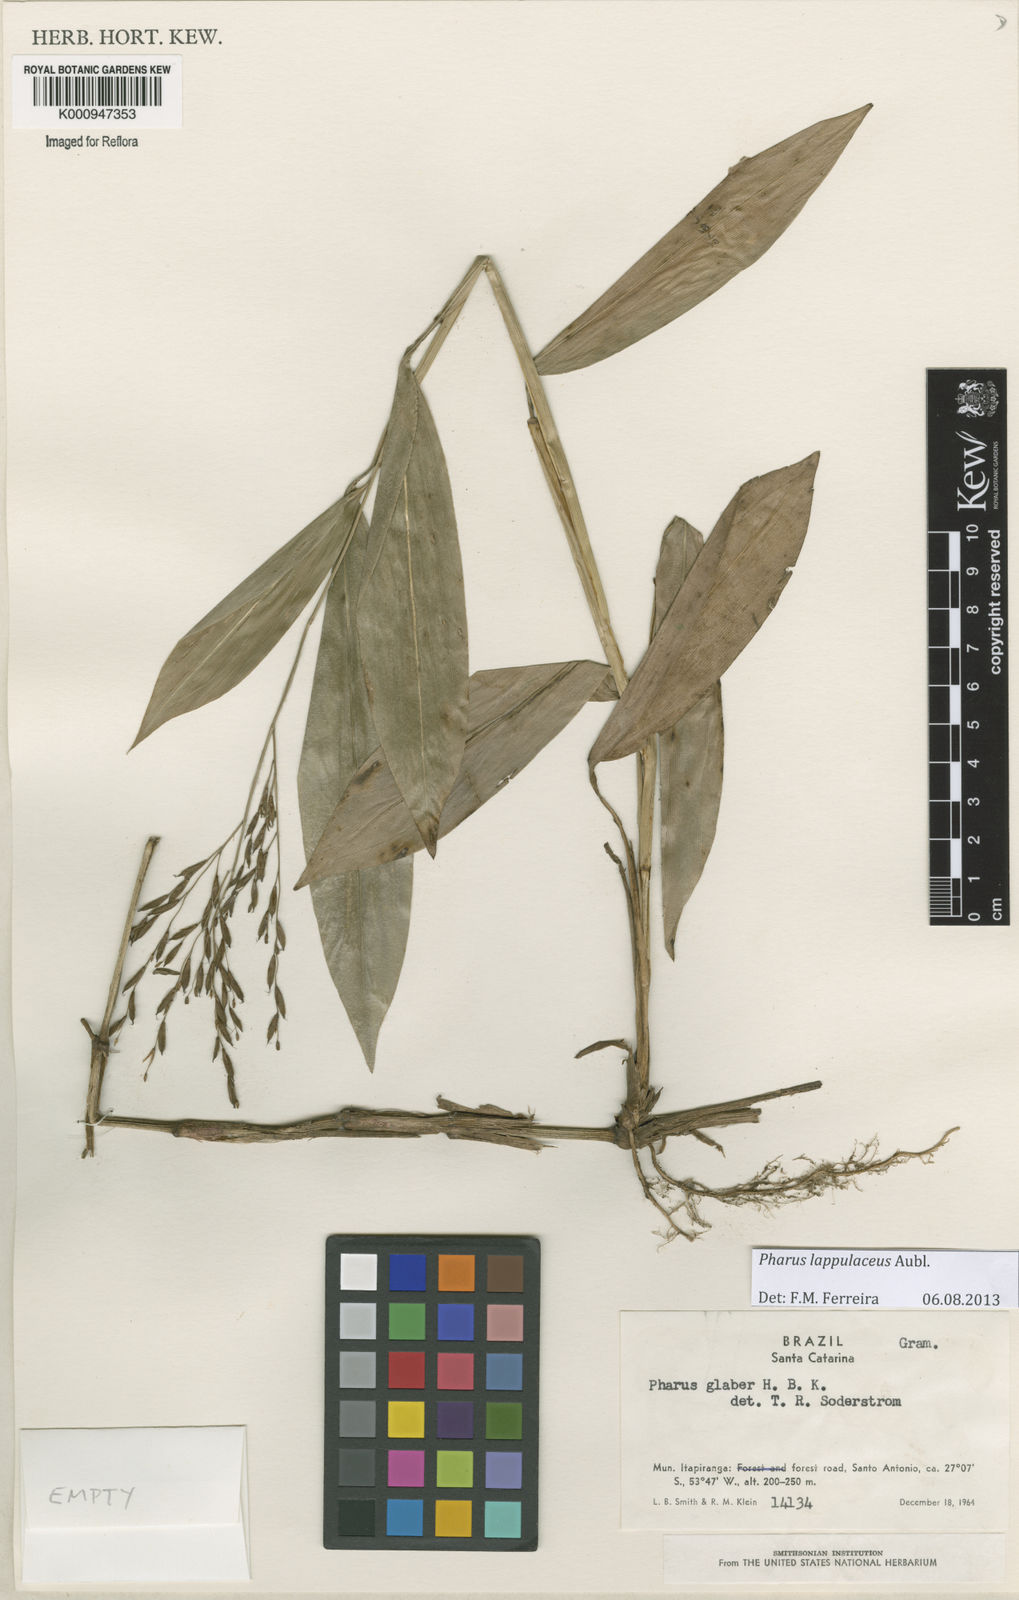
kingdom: Plantae
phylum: Tracheophyta
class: Liliopsida
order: Poales
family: Poaceae
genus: Pharus
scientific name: Pharus lappulaceus
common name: Creeping leafstalk grass
